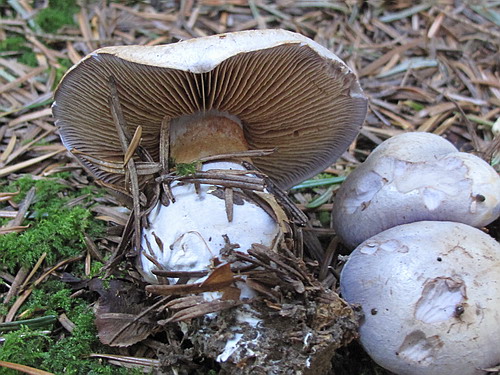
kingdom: Fungi
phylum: Basidiomycota
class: Agaricomycetes
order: Agaricales
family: Cortinariaceae
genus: Cortinarius
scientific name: Cortinarius largus
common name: violetrandet slørhat
